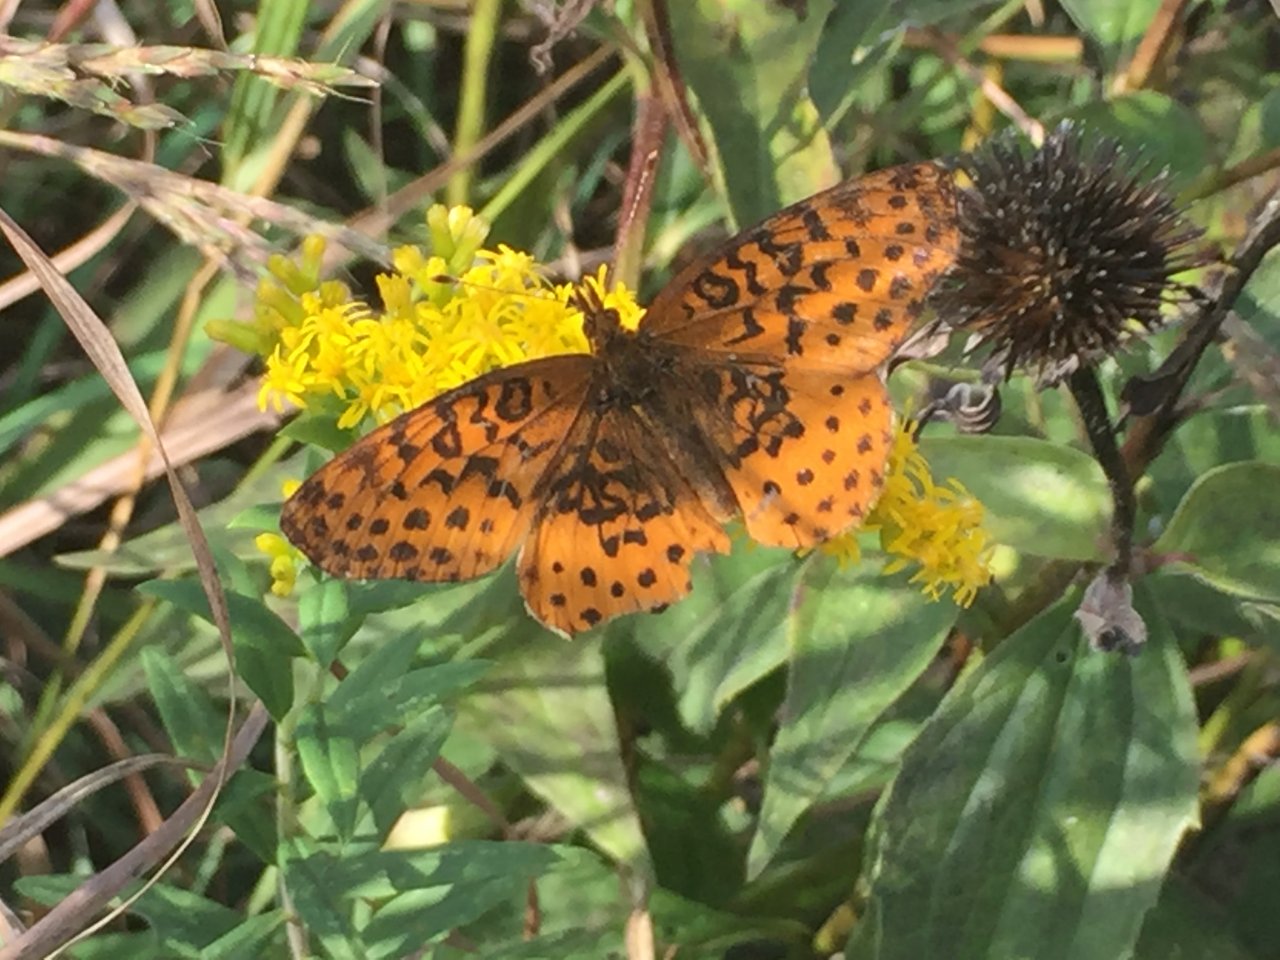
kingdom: Animalia
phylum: Arthropoda
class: Insecta
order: Lepidoptera
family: Nymphalidae
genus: Clossiana
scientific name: Clossiana toddi
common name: Meadow Fritillary
